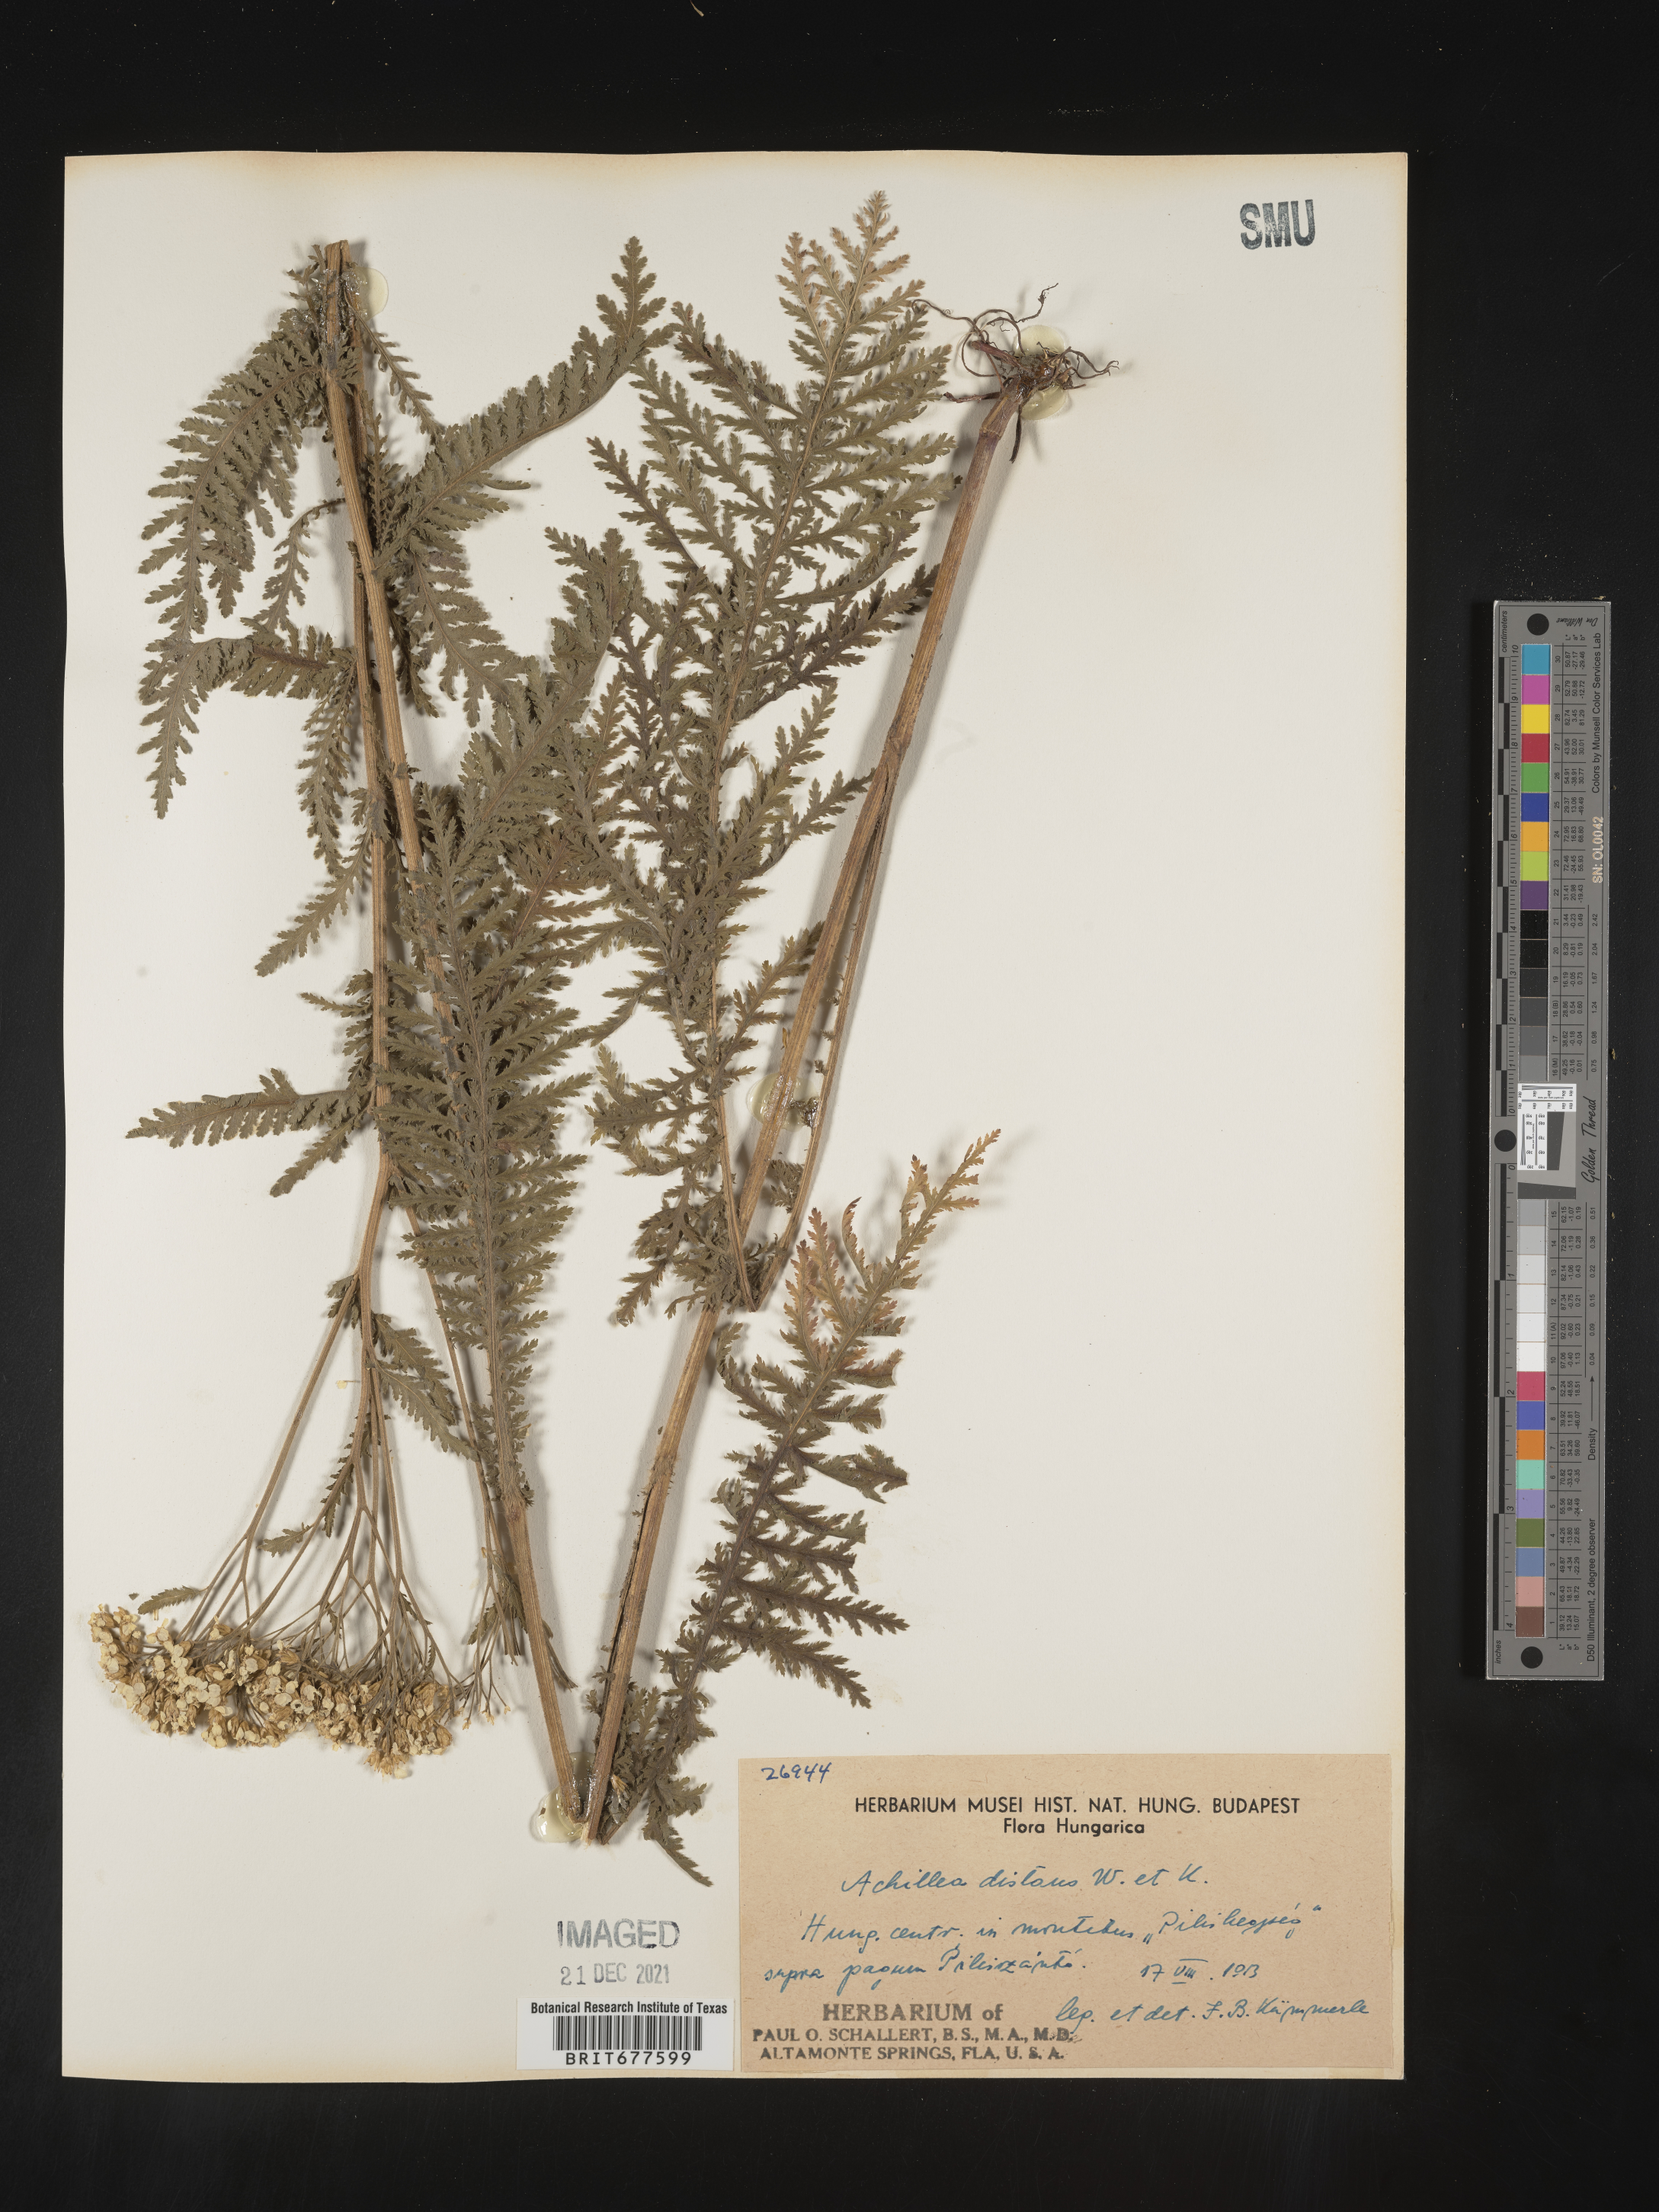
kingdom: Plantae
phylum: Tracheophyta
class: Magnoliopsida
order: Asterales
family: Asteraceae
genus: Achillea
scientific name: Achillea millefolium
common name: Yarrow
